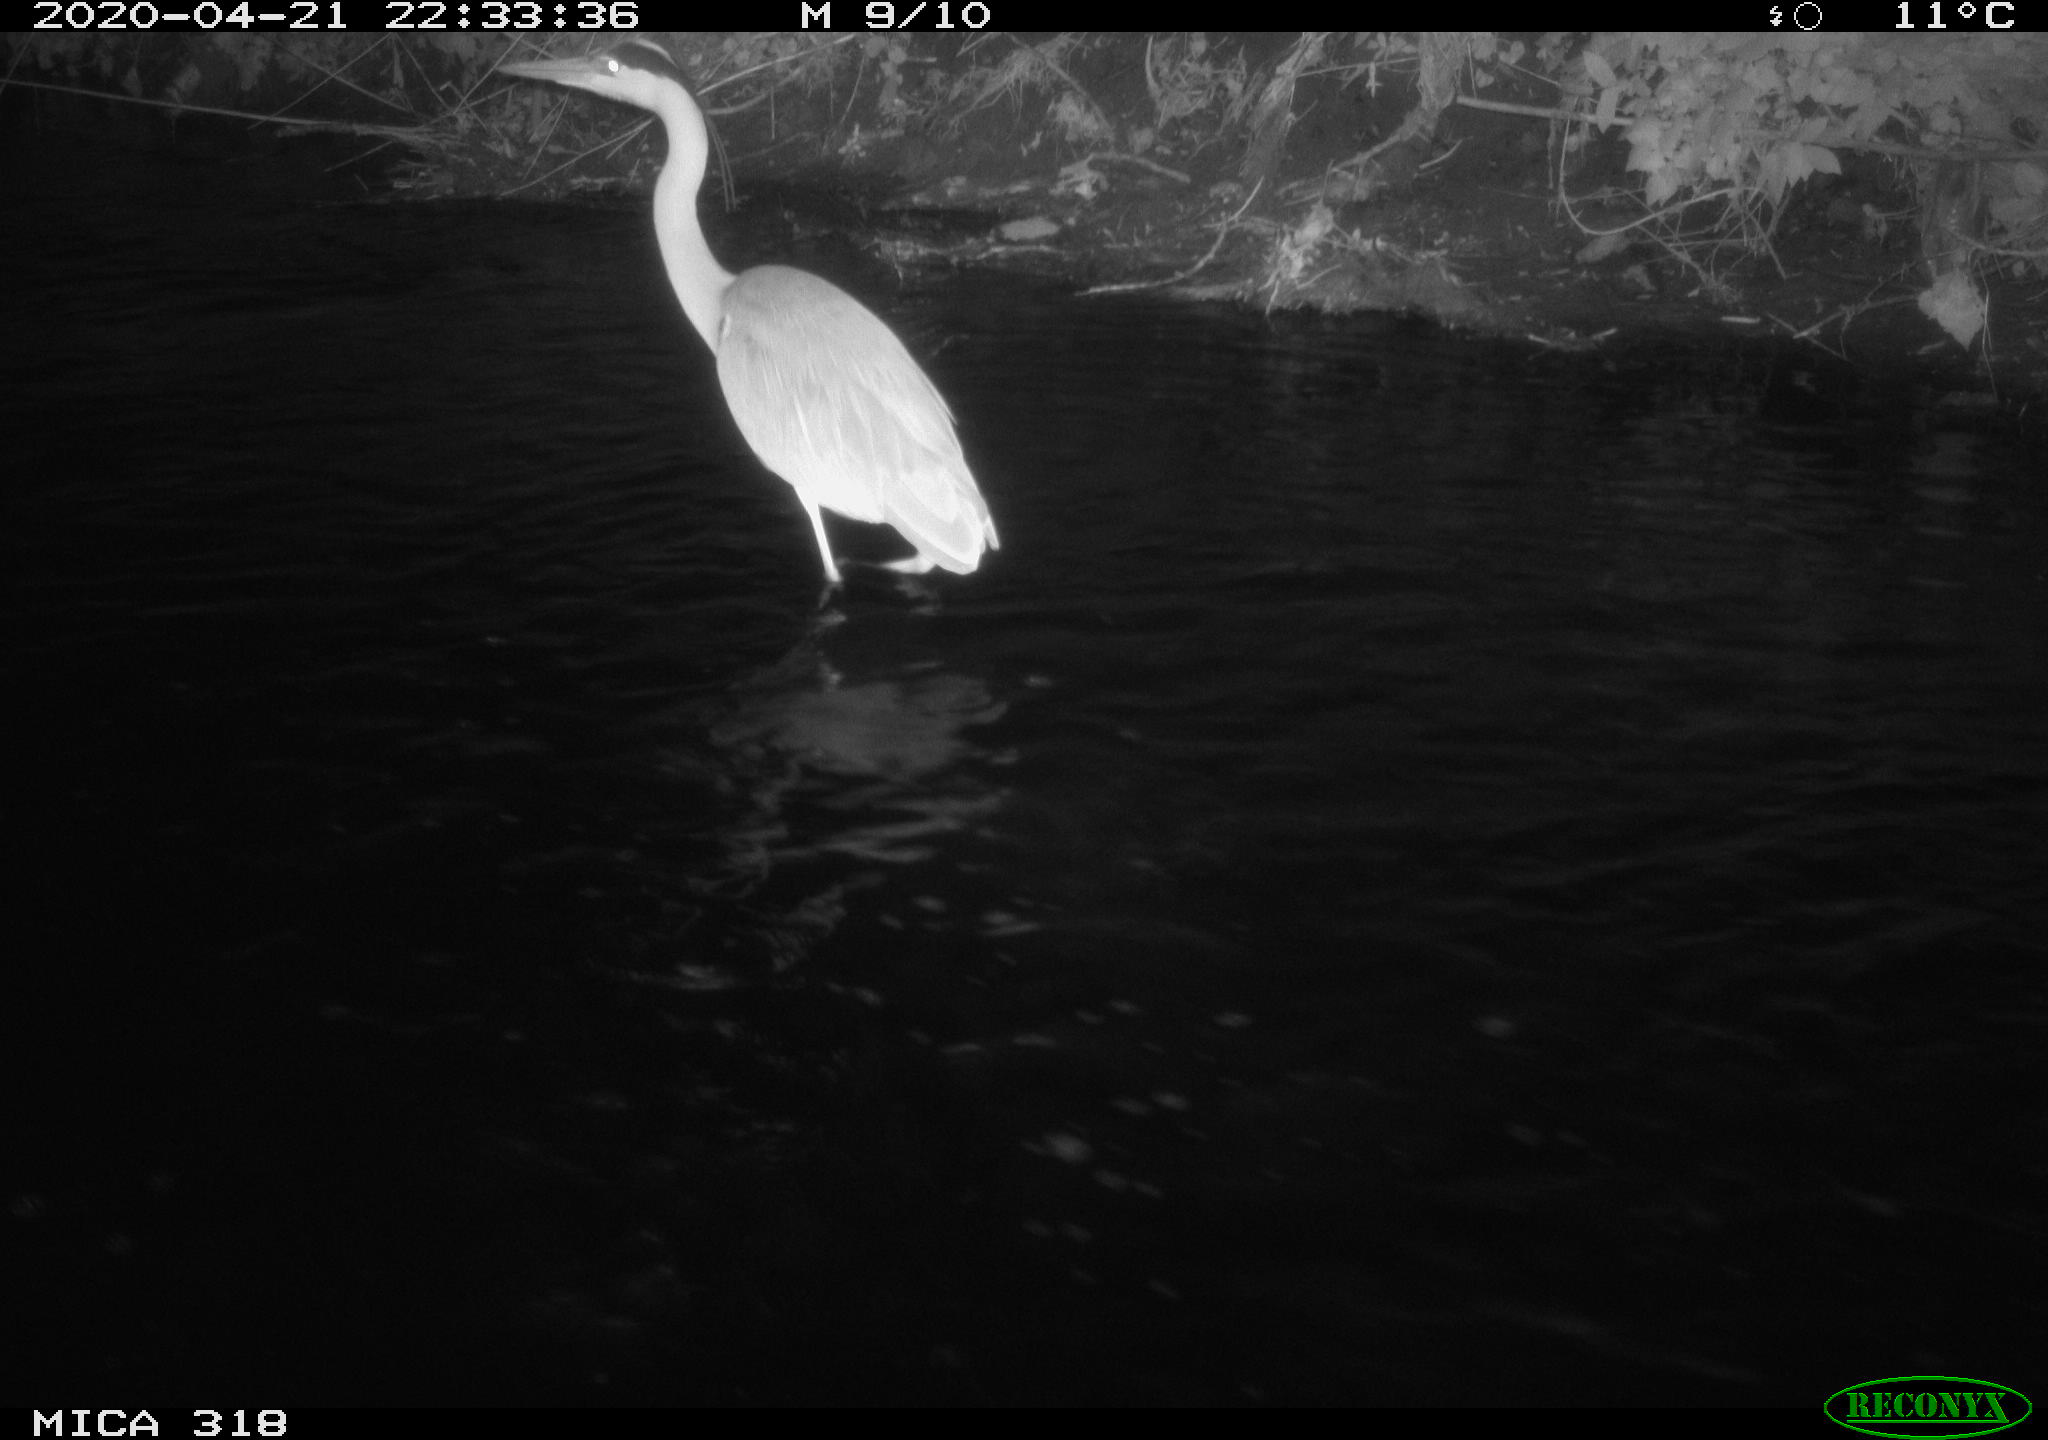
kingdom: Animalia
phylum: Chordata
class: Aves
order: Pelecaniformes
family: Ardeidae
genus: Ardea
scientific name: Ardea cinerea
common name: Grey heron
